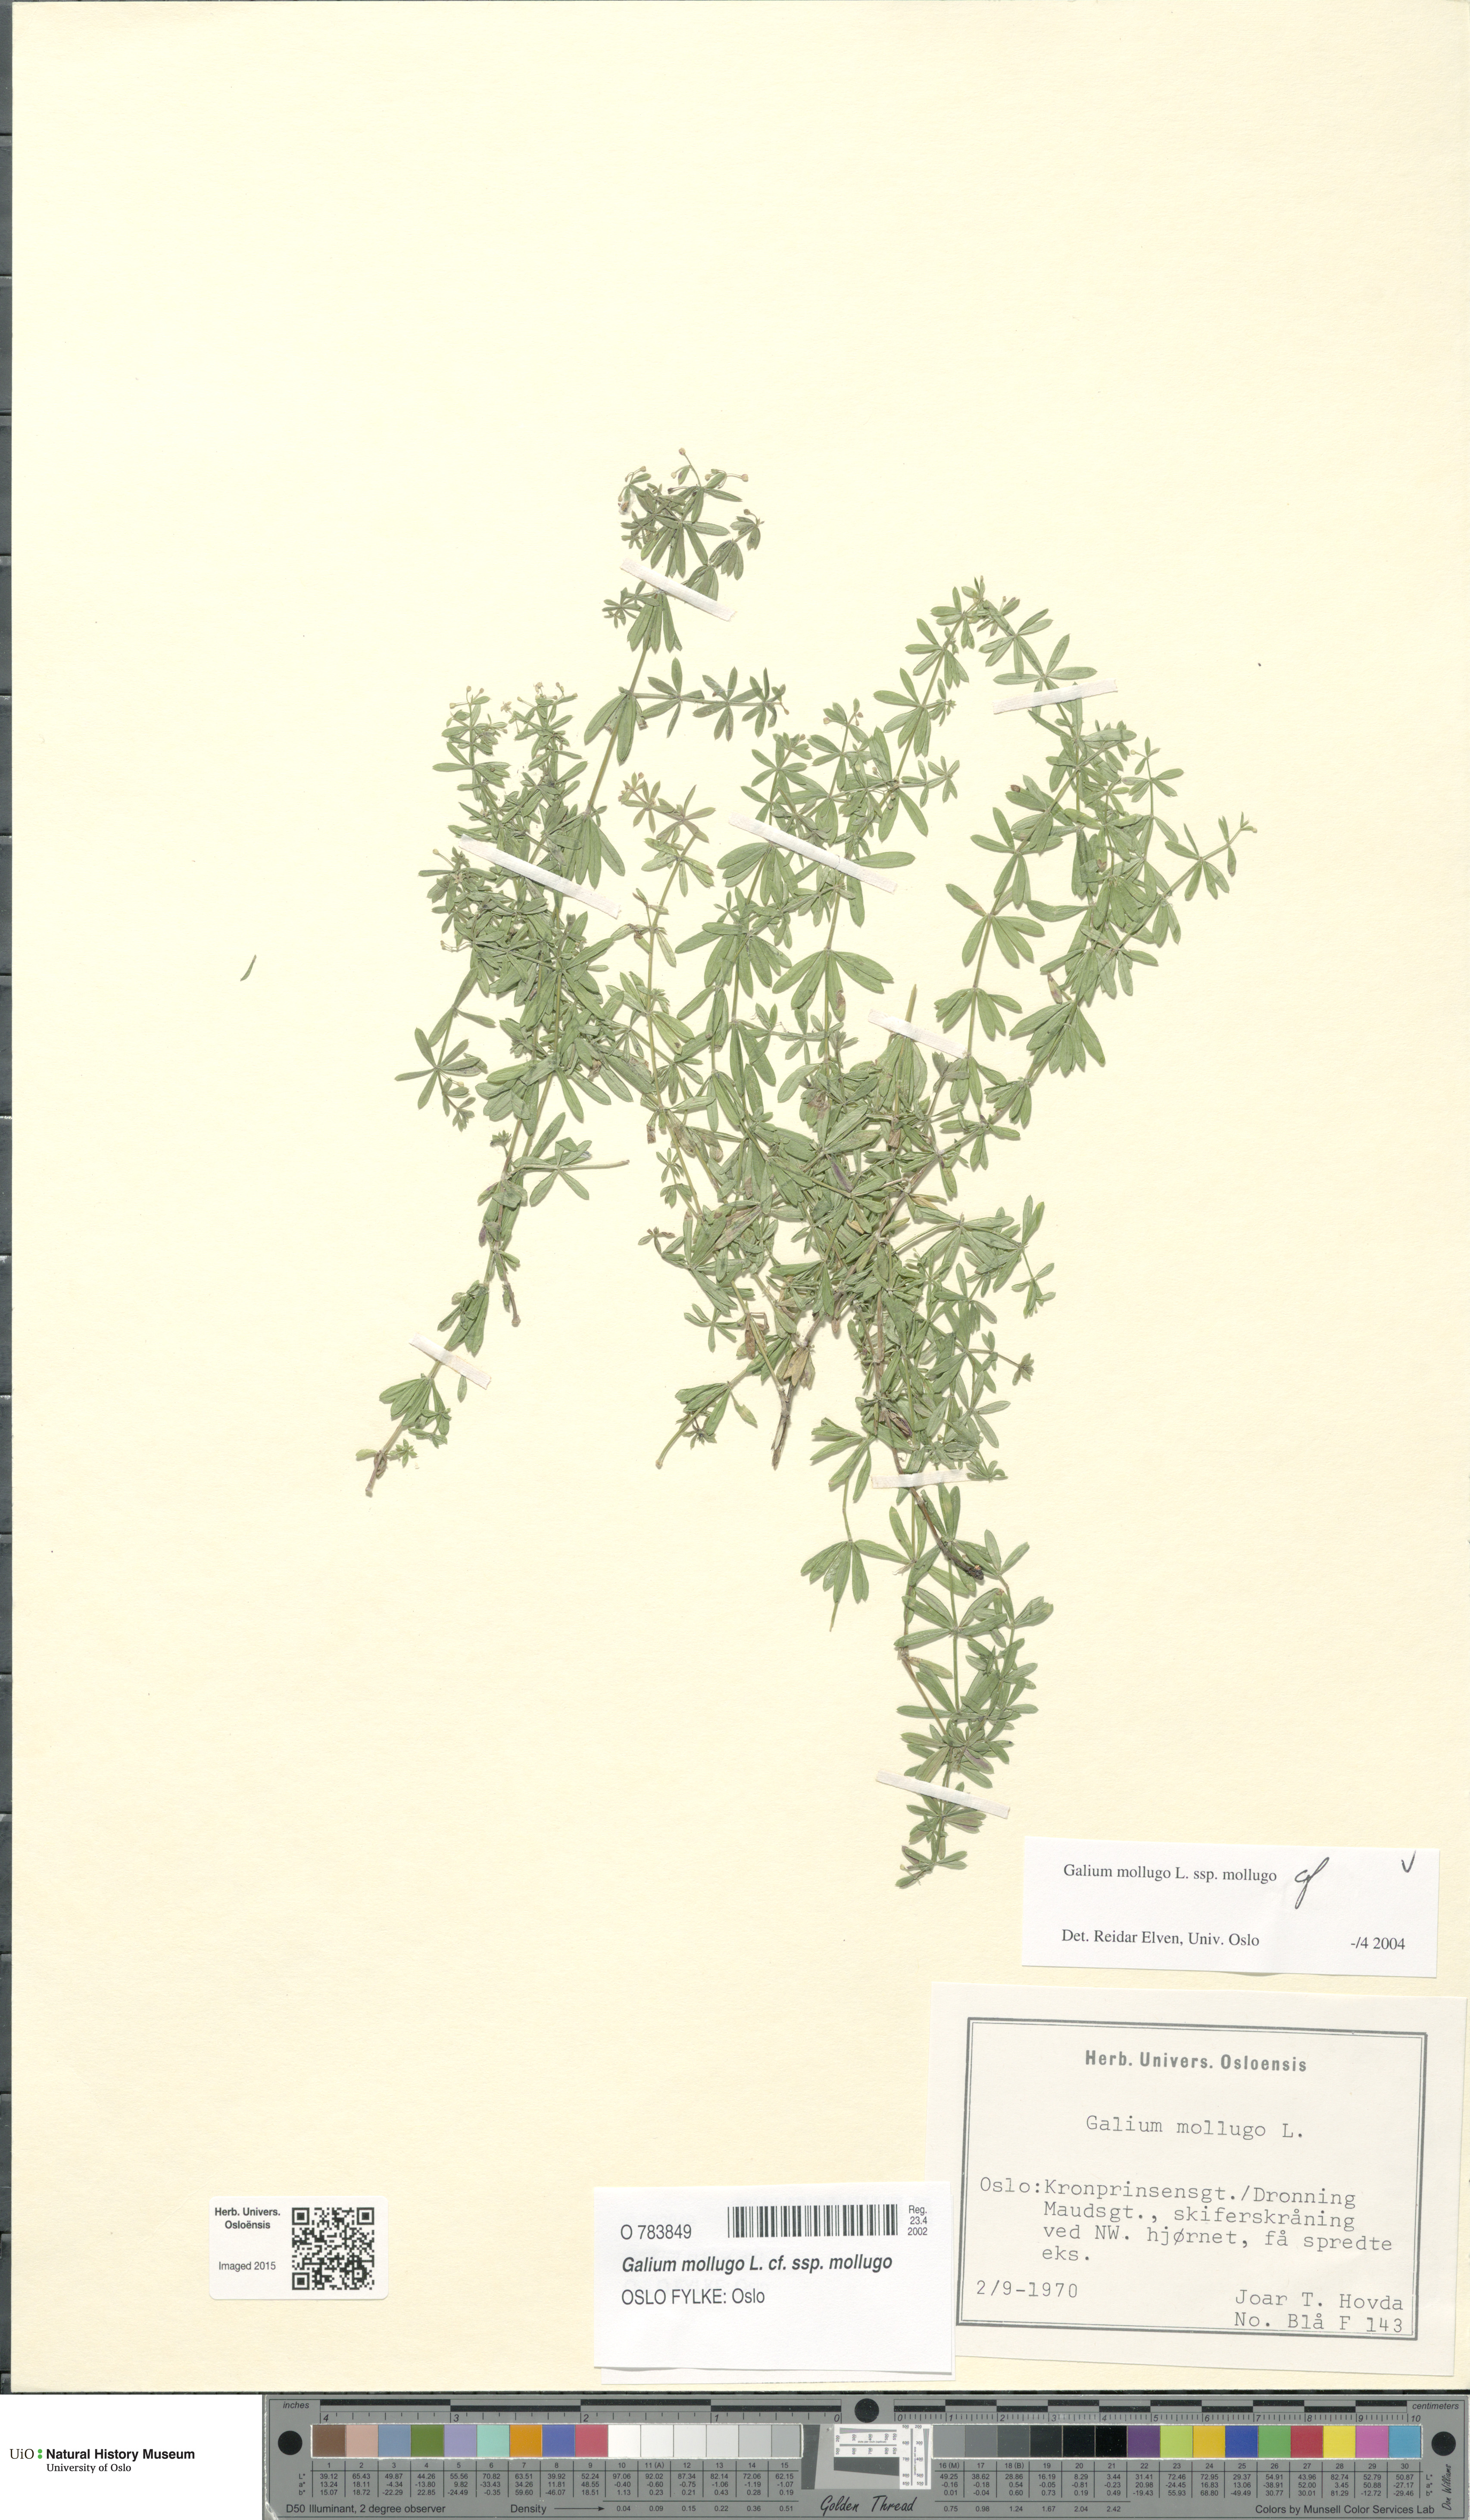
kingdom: Plantae
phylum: Tracheophyta
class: Magnoliopsida
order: Gentianales
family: Rubiaceae
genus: Galium
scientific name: Galium mollugo
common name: Hedge bedstraw
